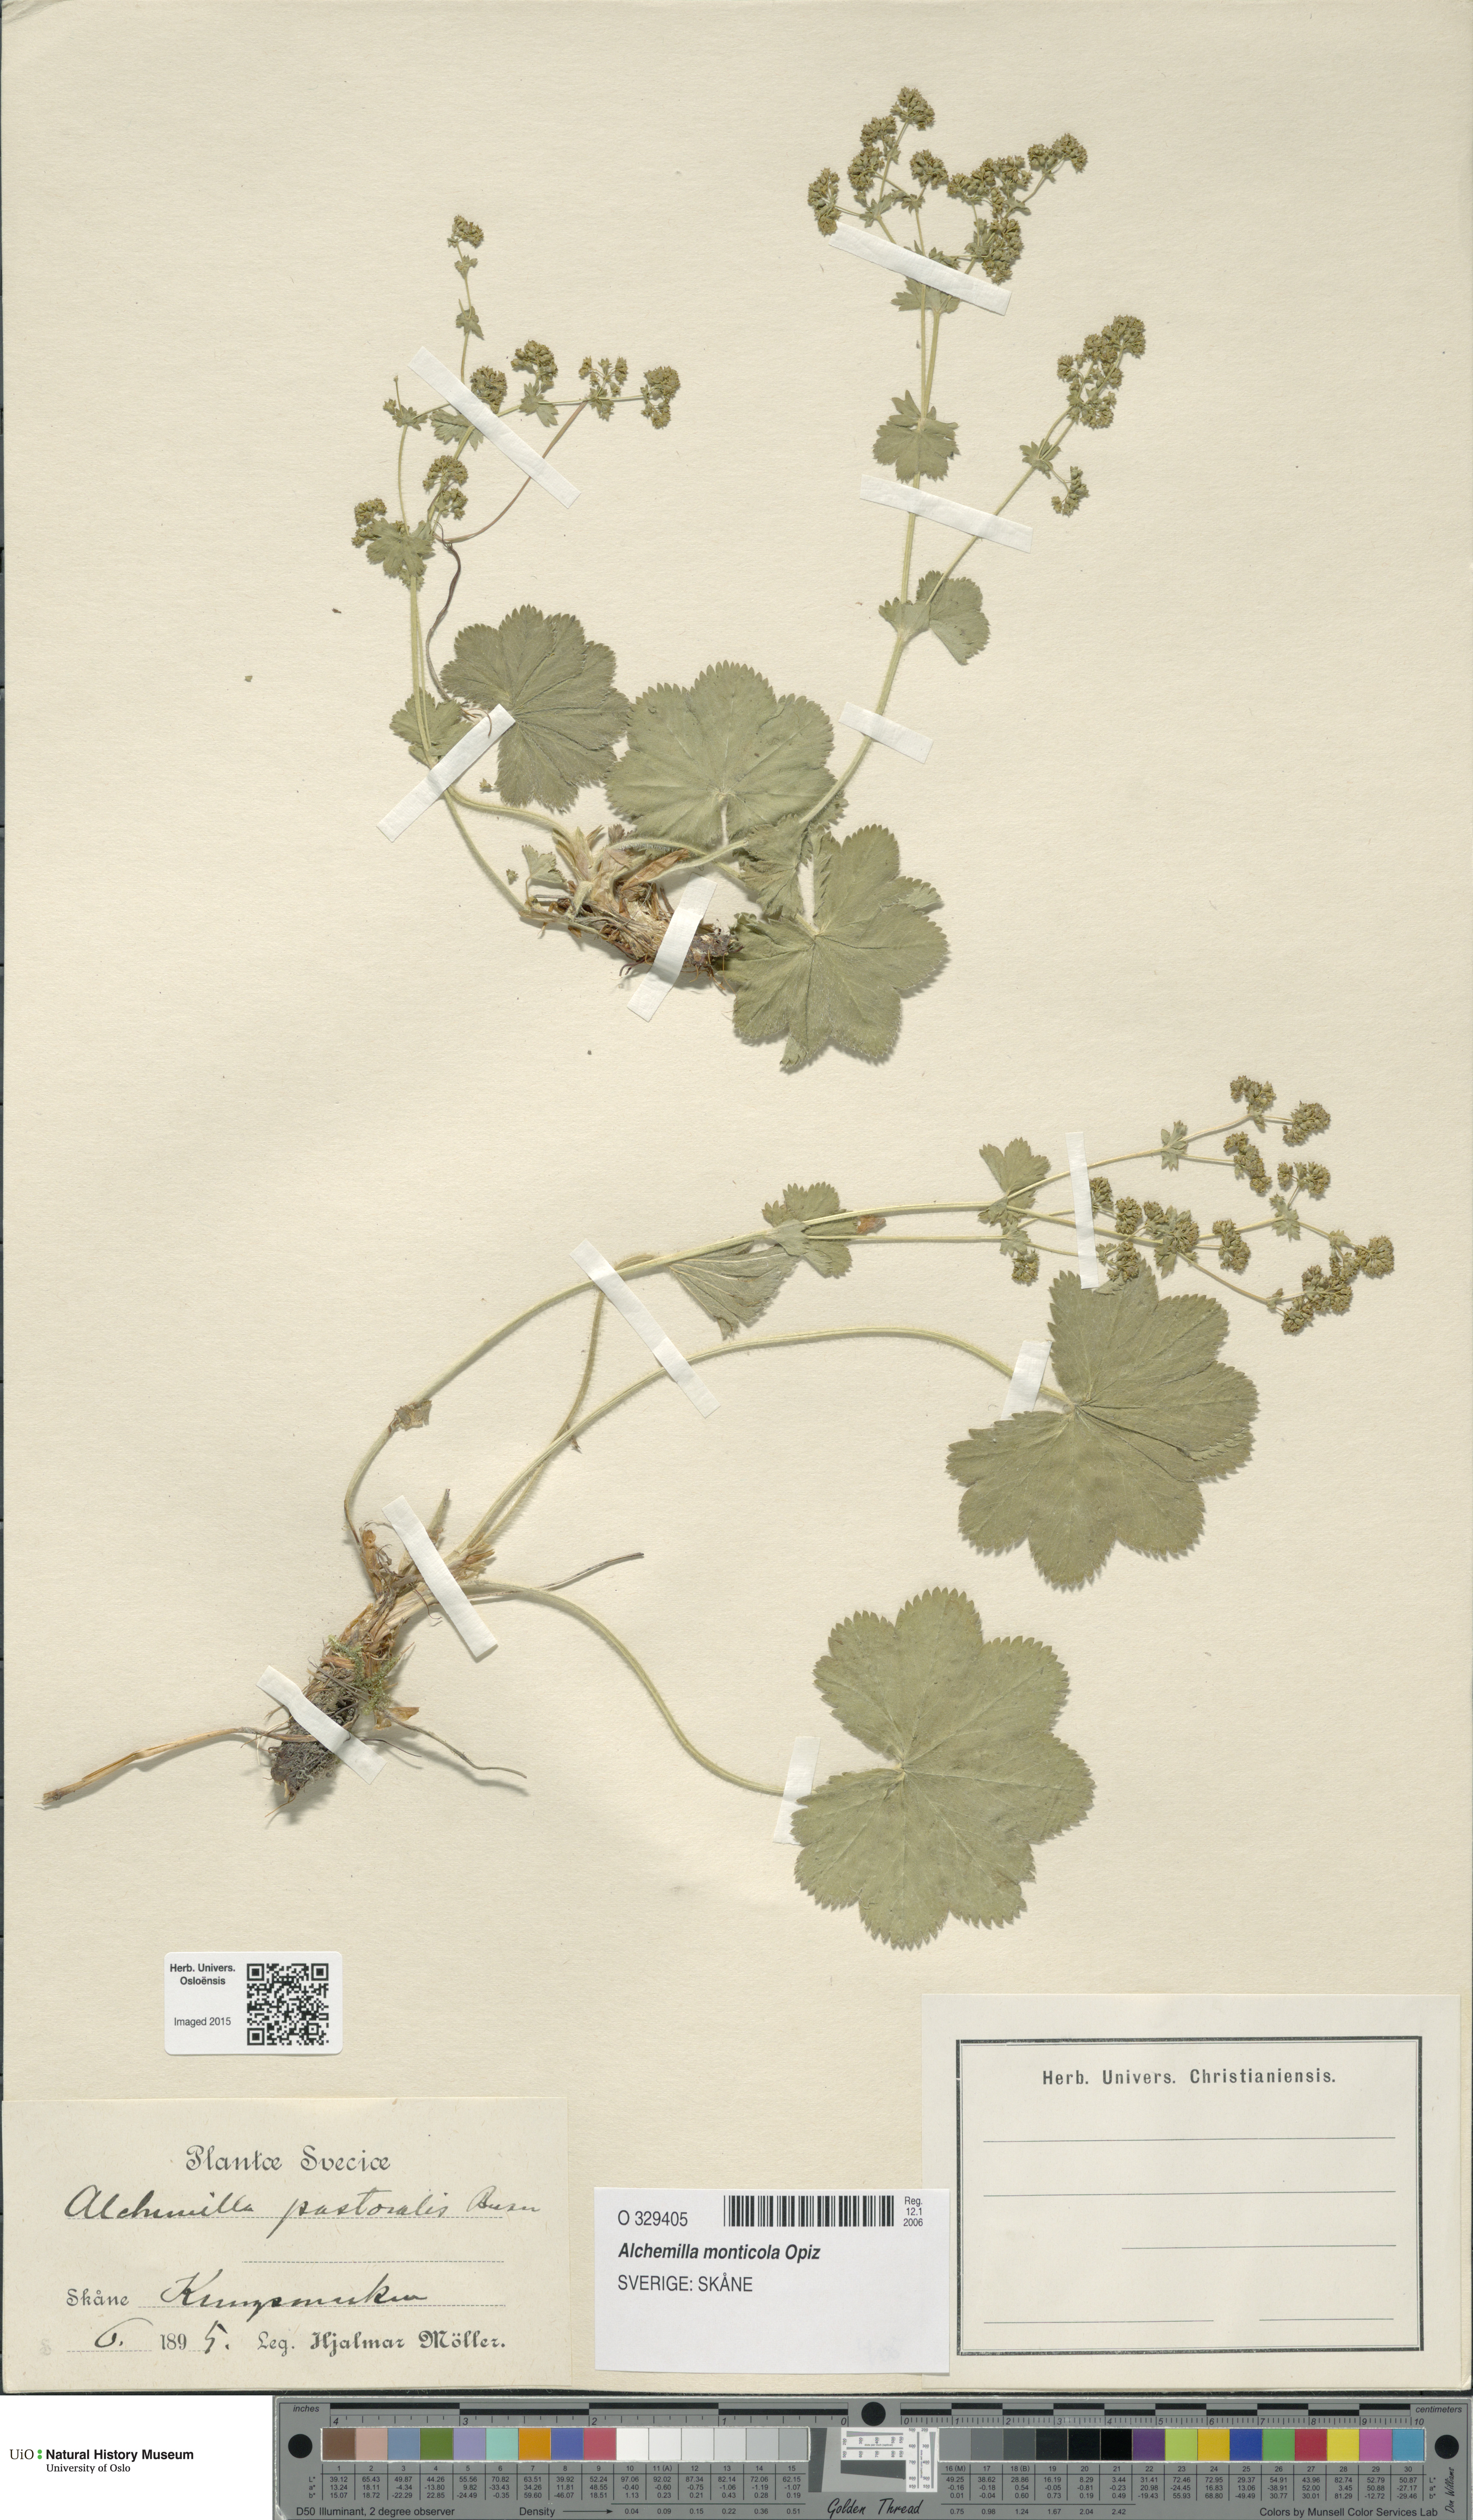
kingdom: Plantae
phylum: Tracheophyta
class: Magnoliopsida
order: Rosales
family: Rosaceae
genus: Alchemilla
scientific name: Alchemilla monticola
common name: Hairy lady's mantle
